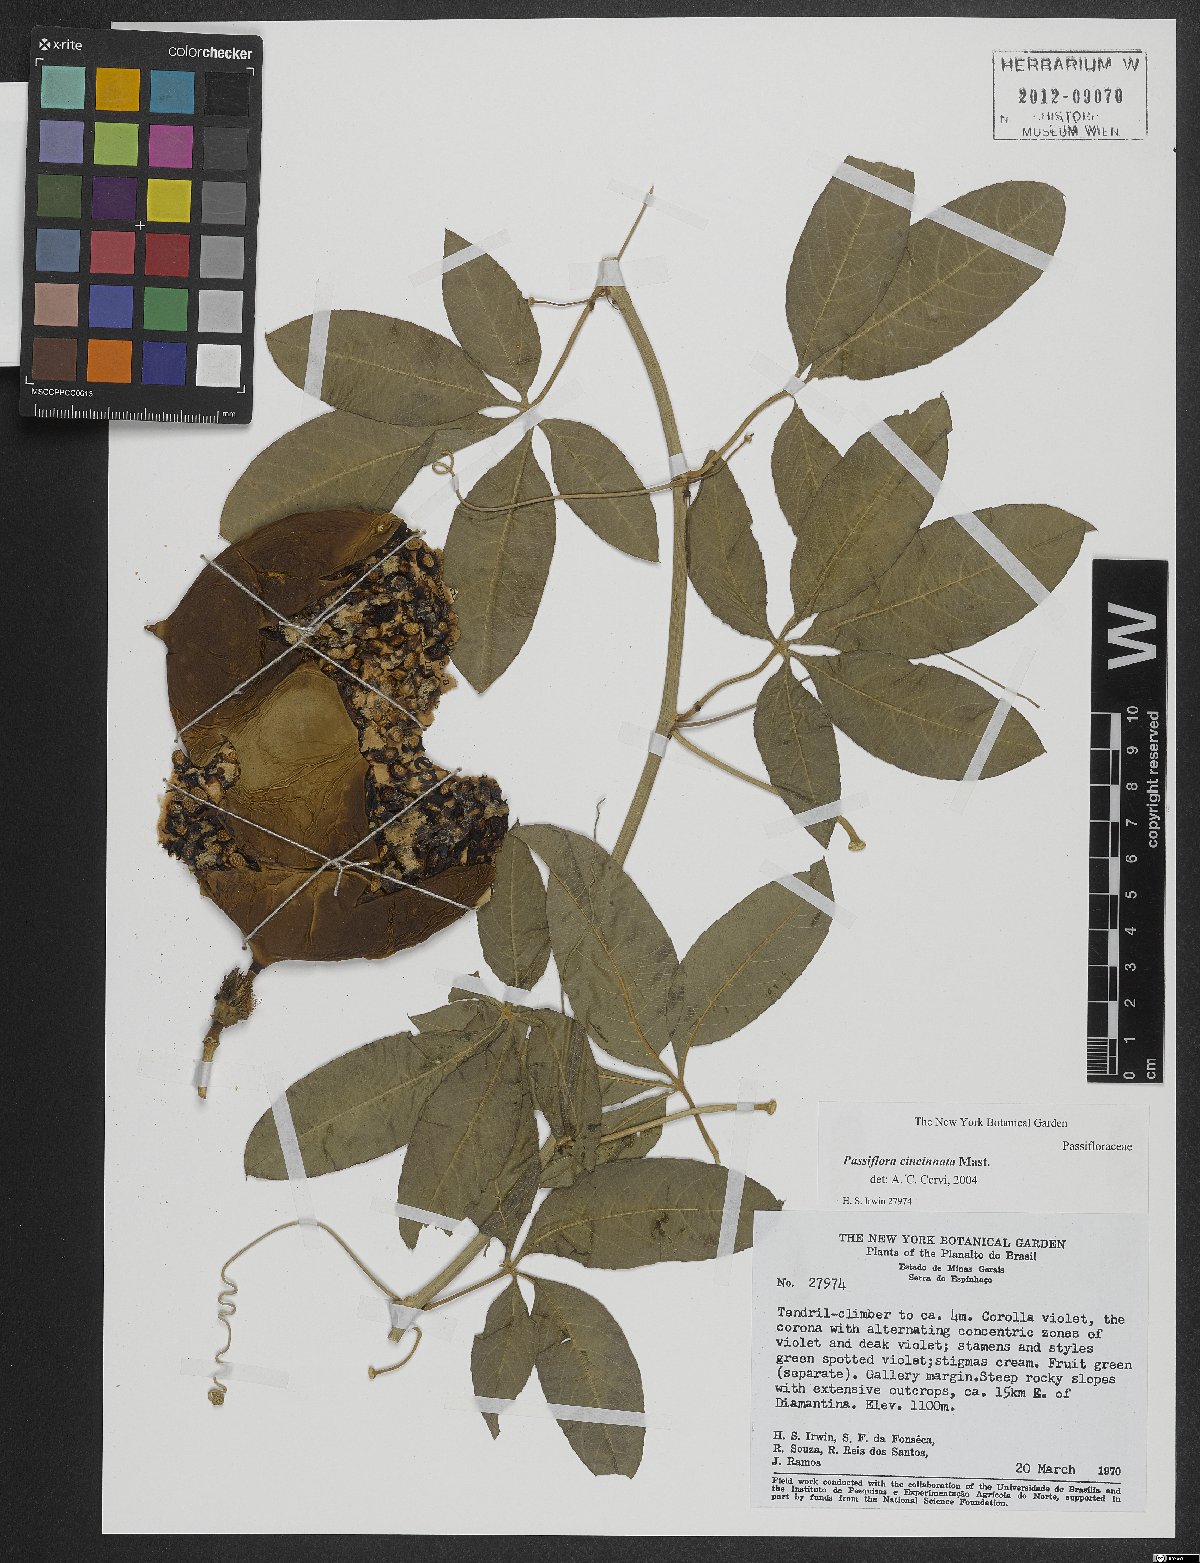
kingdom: Plantae
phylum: Tracheophyta
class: Magnoliopsida
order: Malpighiales
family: Passifloraceae
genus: Passiflora
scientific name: Passiflora cincinnata
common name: Crato passionvine
